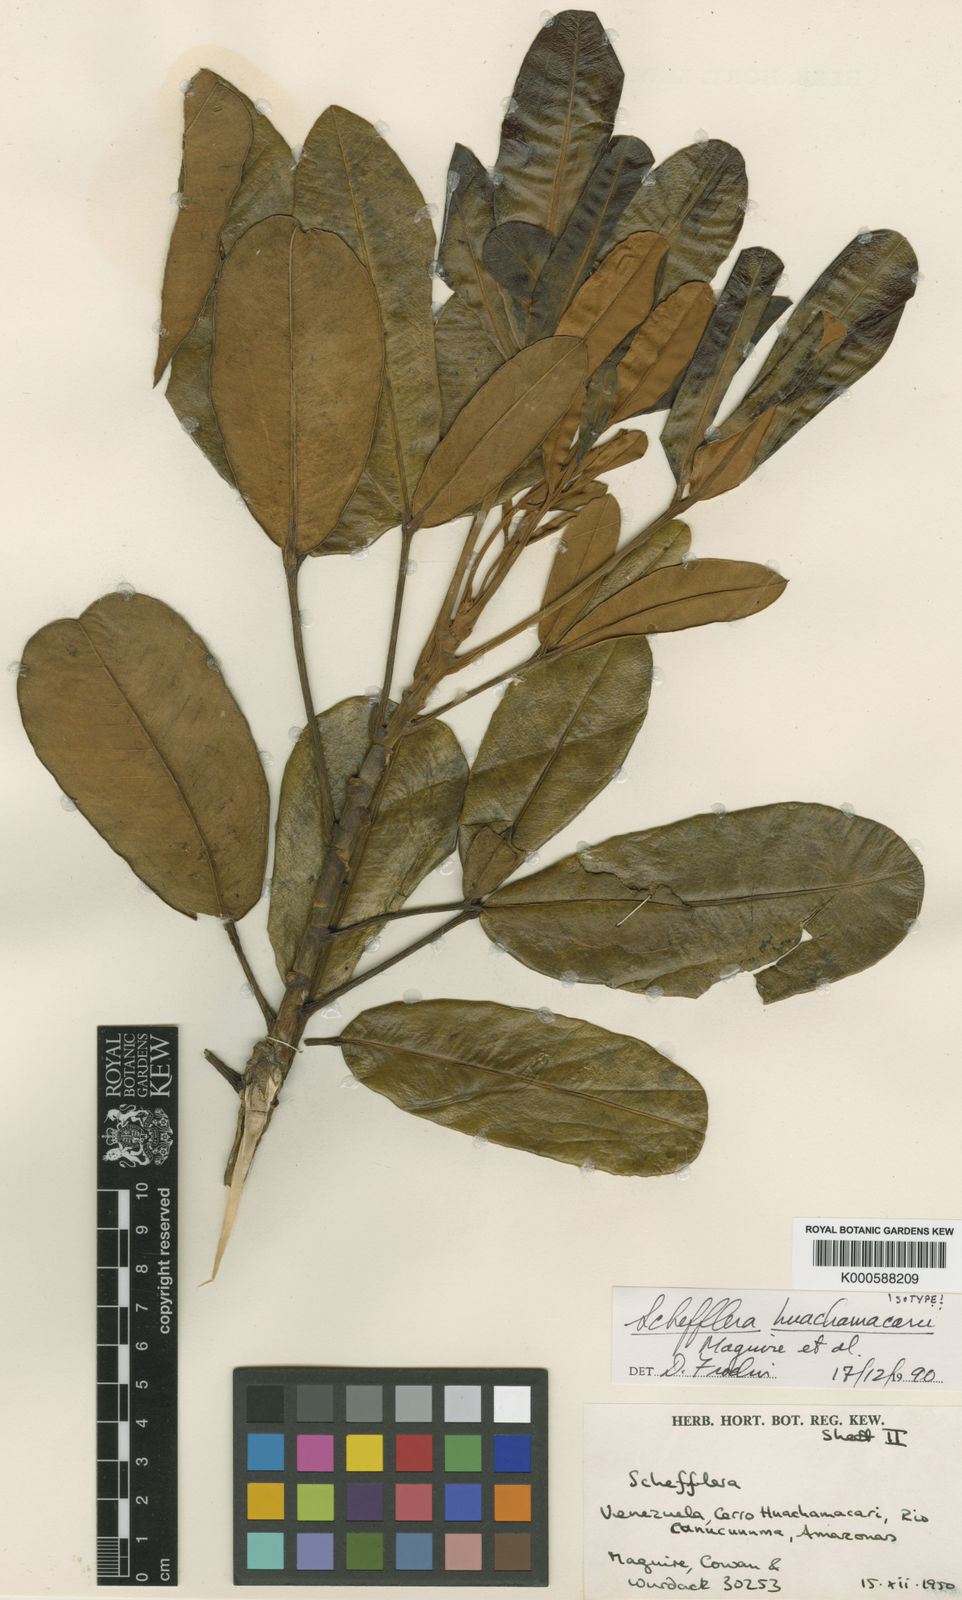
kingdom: Plantae
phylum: Tracheophyta
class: Magnoliopsida
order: Apiales
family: Araliaceae
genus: Crepinella
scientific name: Crepinella
